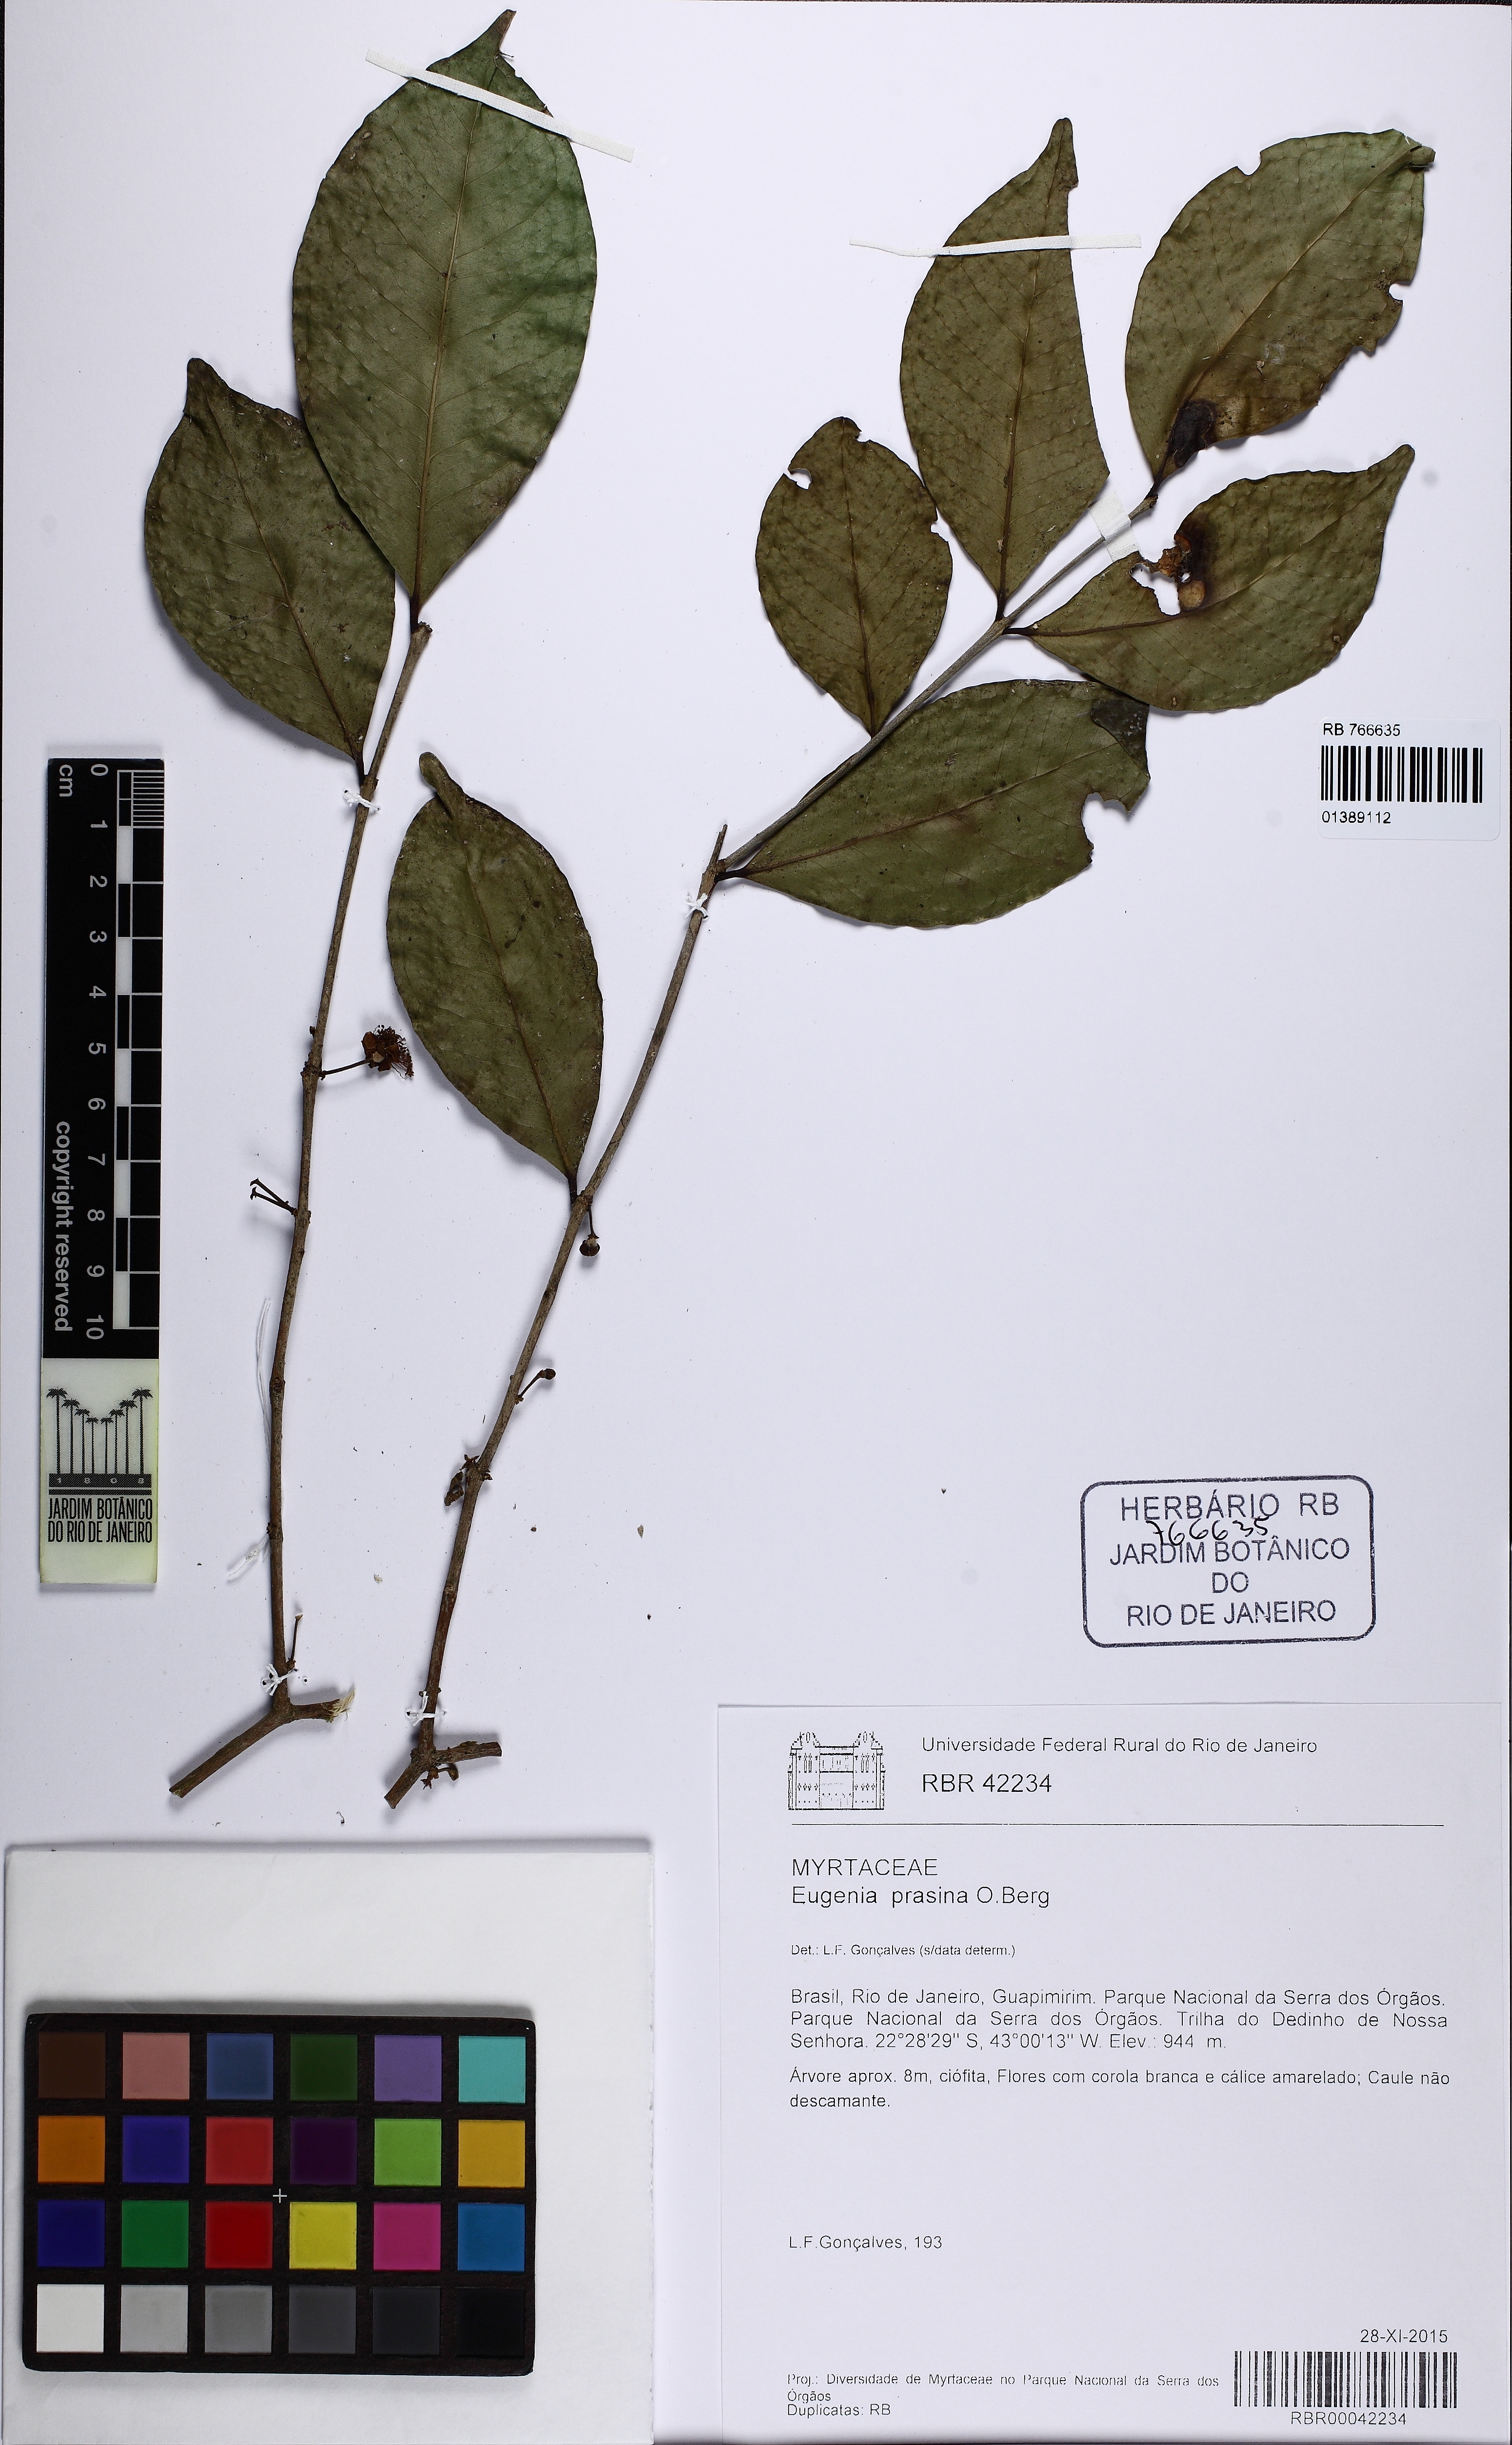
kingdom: Plantae
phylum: Tracheophyta
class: Magnoliopsida
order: Myrtales
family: Myrtaceae
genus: Eugenia
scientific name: Eugenia prasina
